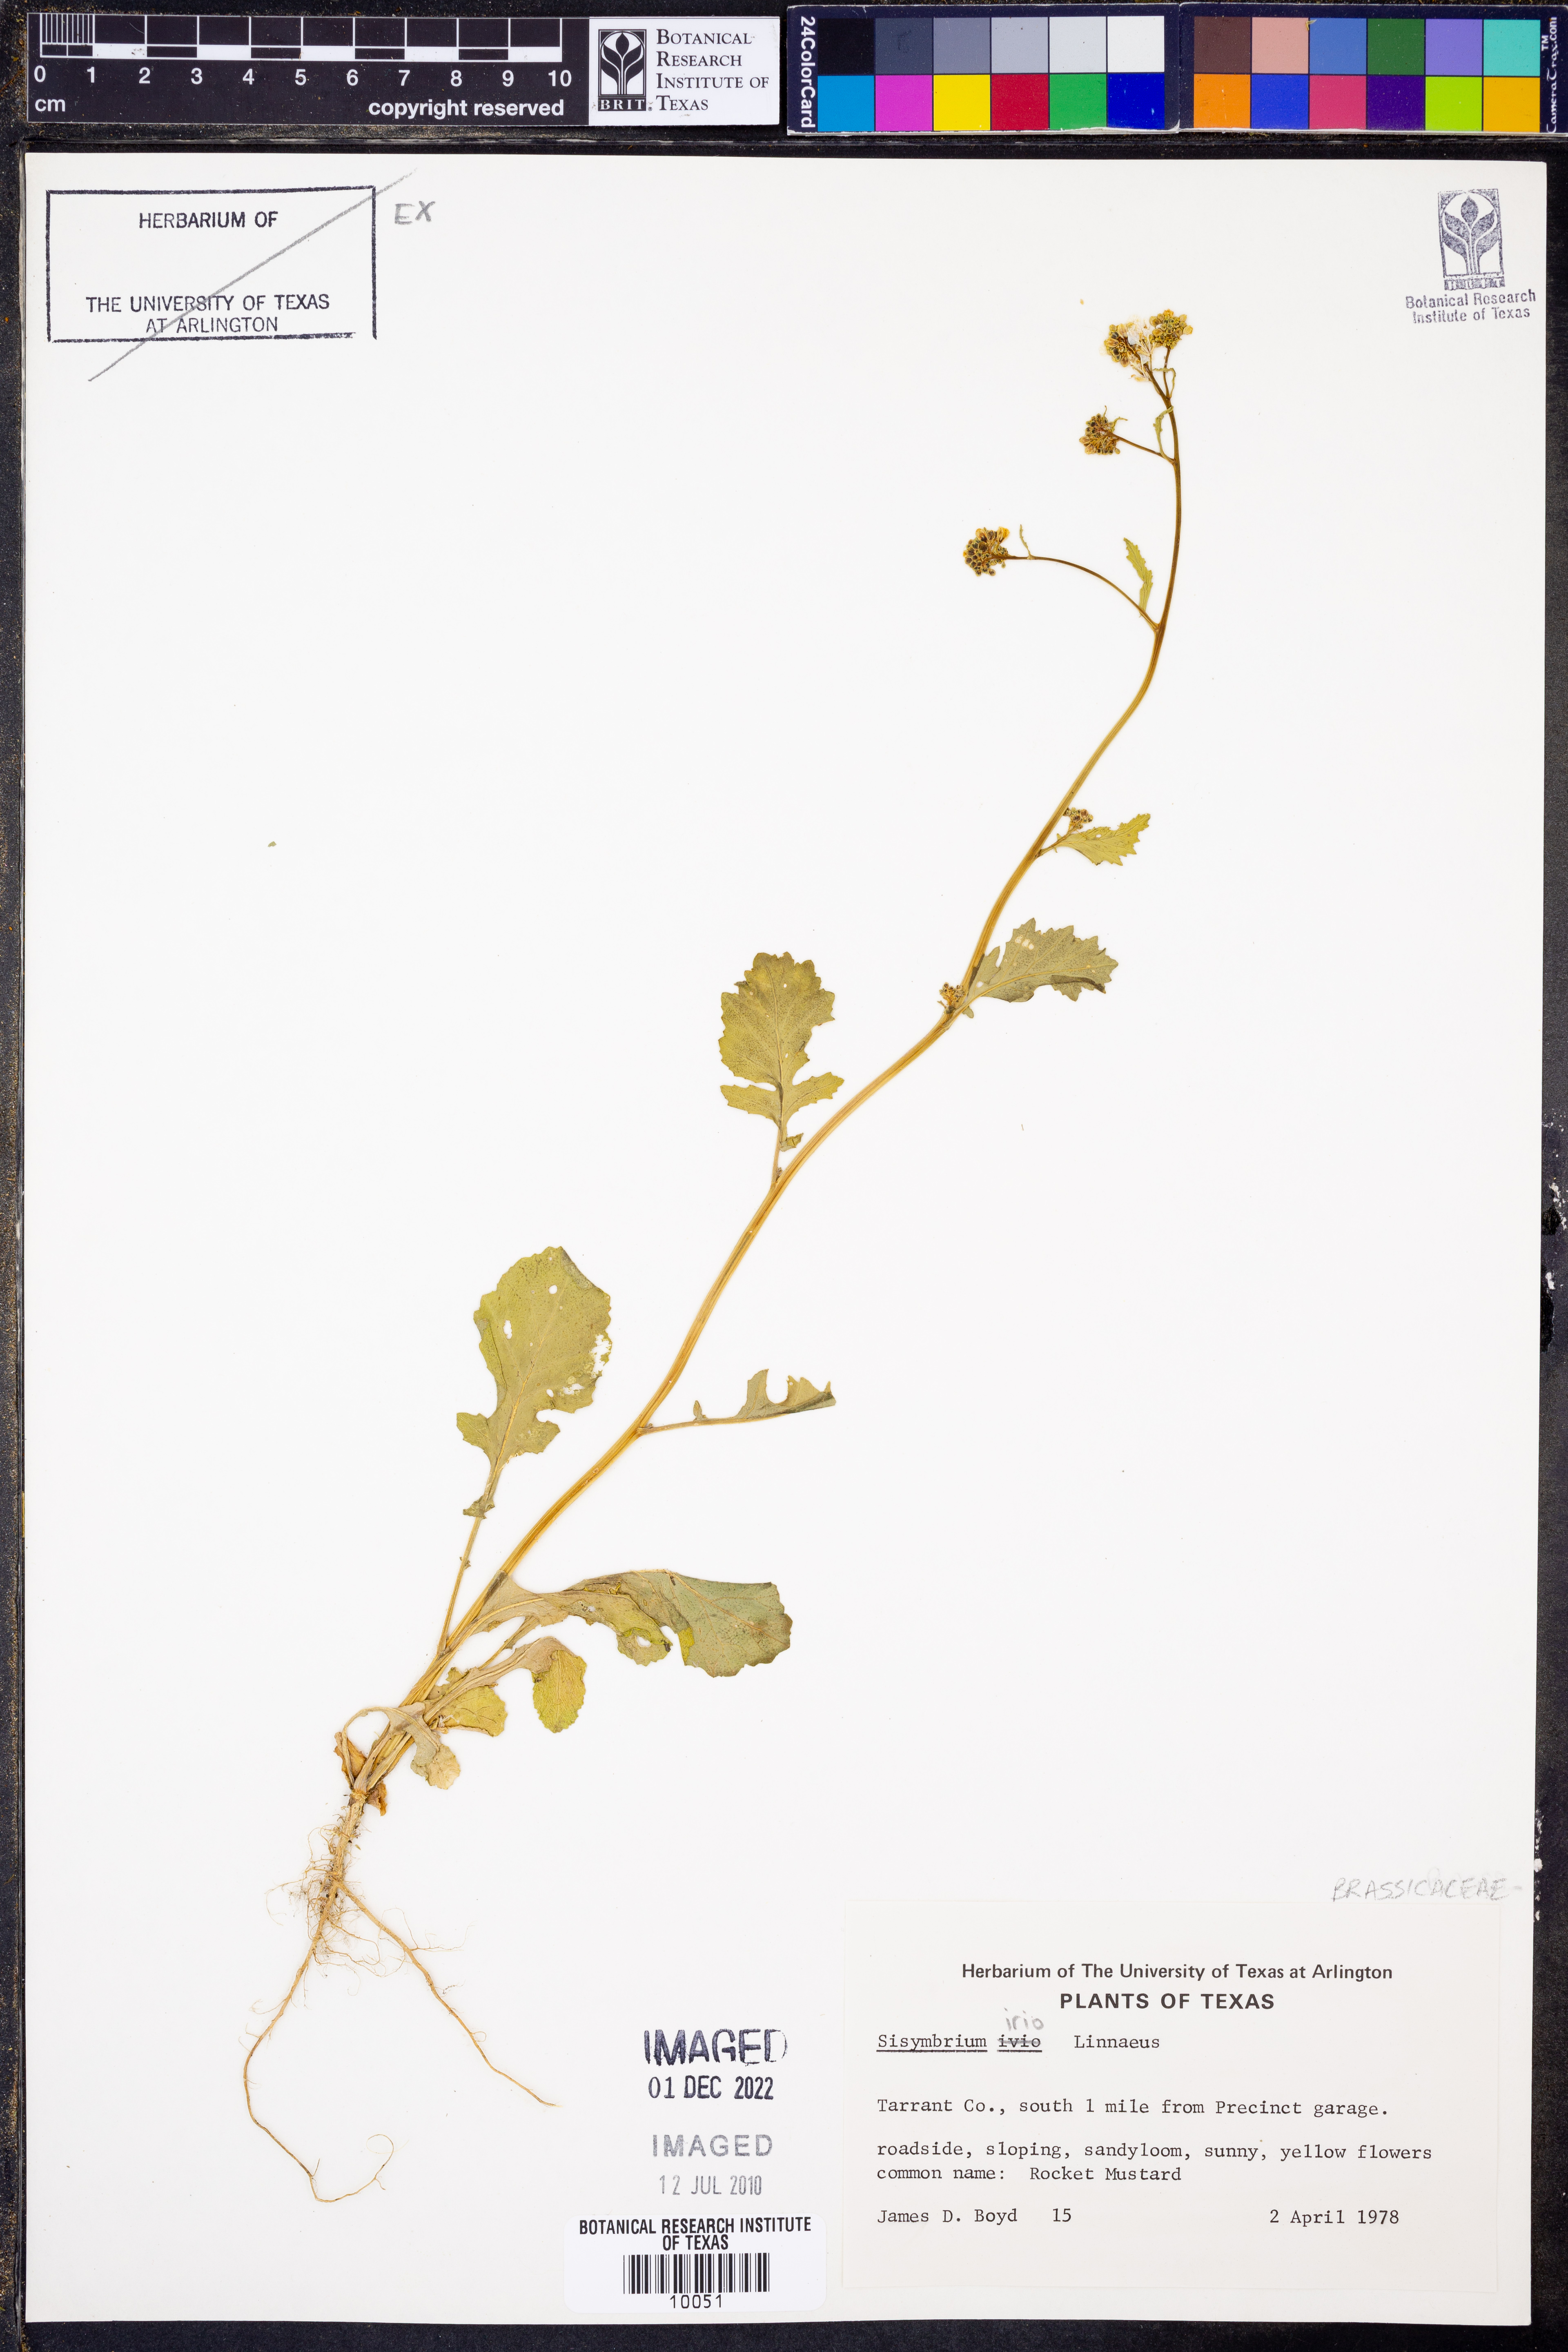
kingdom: Plantae
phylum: Tracheophyta
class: Magnoliopsida
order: Brassicales
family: Brassicaceae
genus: Sisymbrium
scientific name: Sisymbrium irio
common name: London rocket
